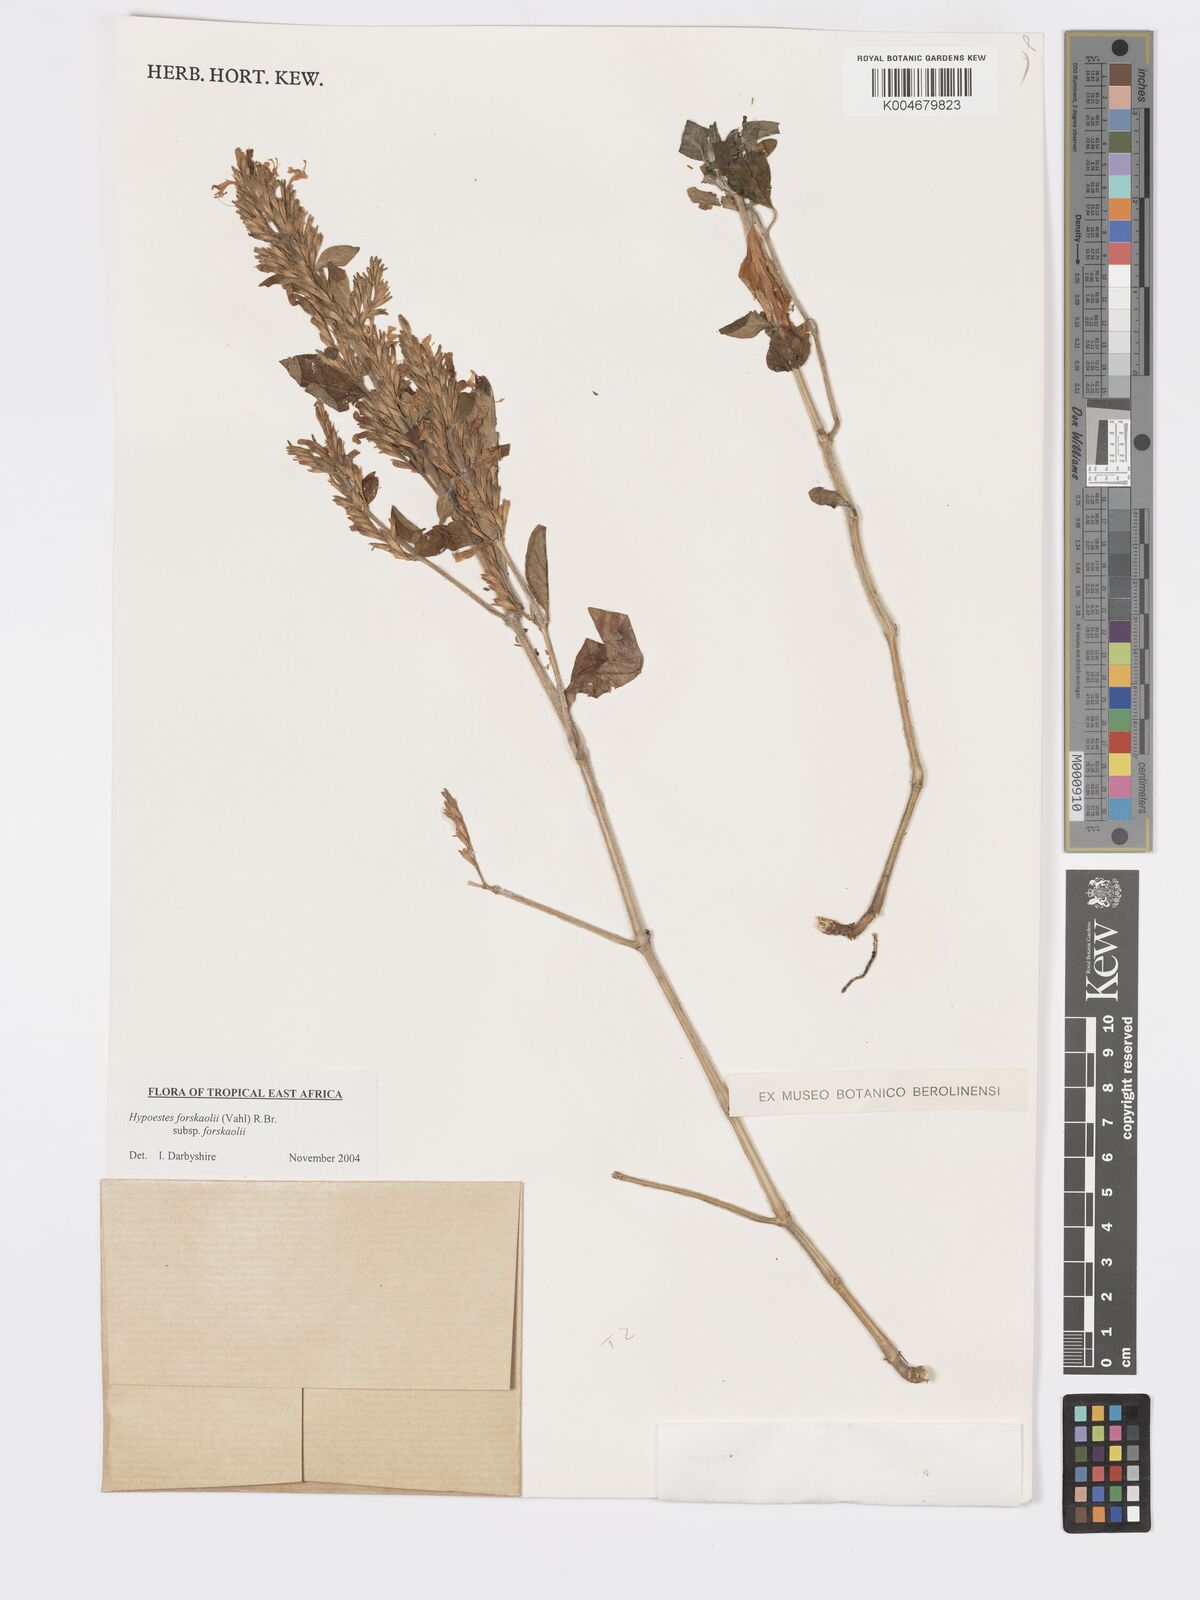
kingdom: Plantae
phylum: Tracheophyta
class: Magnoliopsida
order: Lamiales
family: Acanthaceae
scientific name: Acanthaceae
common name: Acanthaceae
